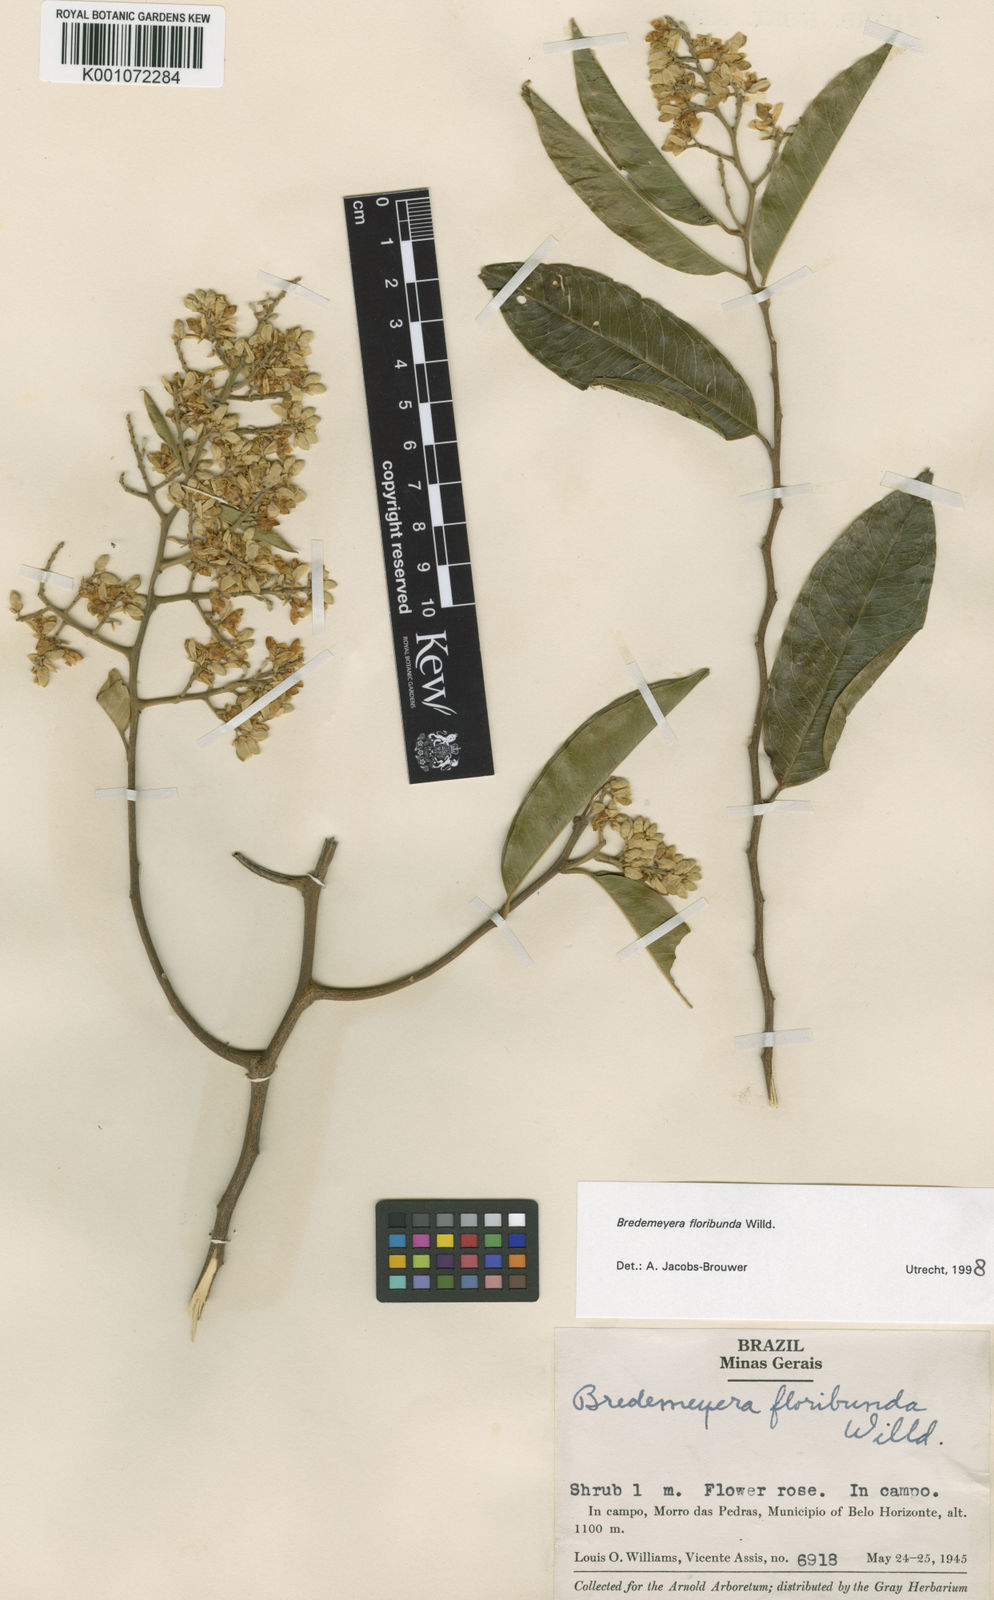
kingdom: Plantae
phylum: Tracheophyta
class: Magnoliopsida
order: Fabales
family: Polygalaceae
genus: Bredemeyera
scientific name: Bredemeyera floribunda
